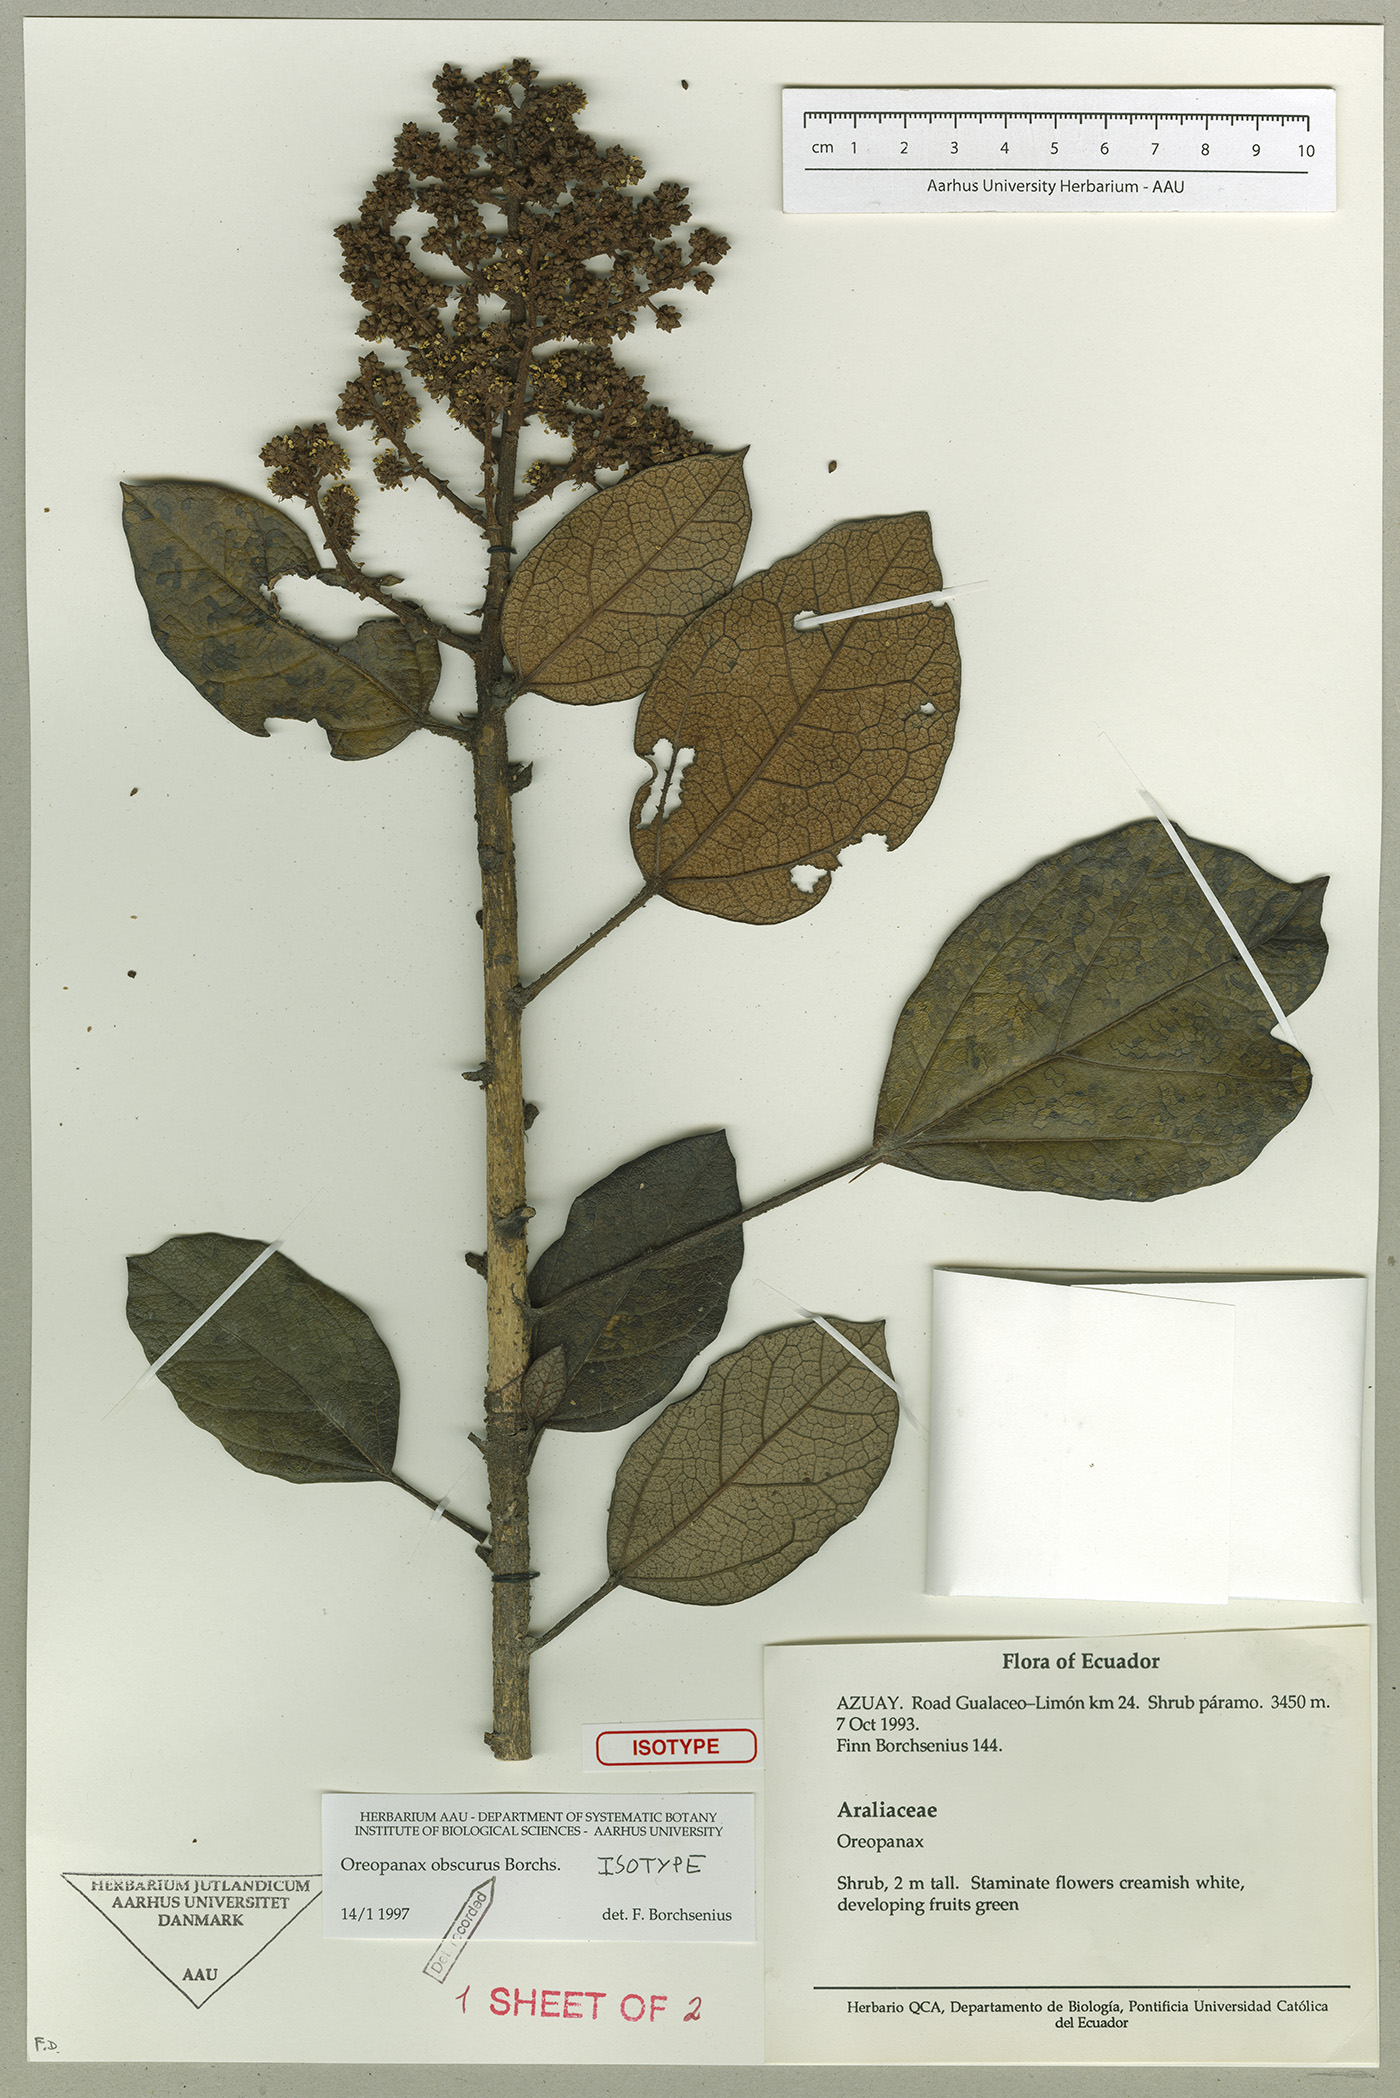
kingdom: Plantae
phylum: Tracheophyta
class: Magnoliopsida
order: Apiales
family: Araliaceae
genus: Oreopanax
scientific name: Oreopanax obscurus
